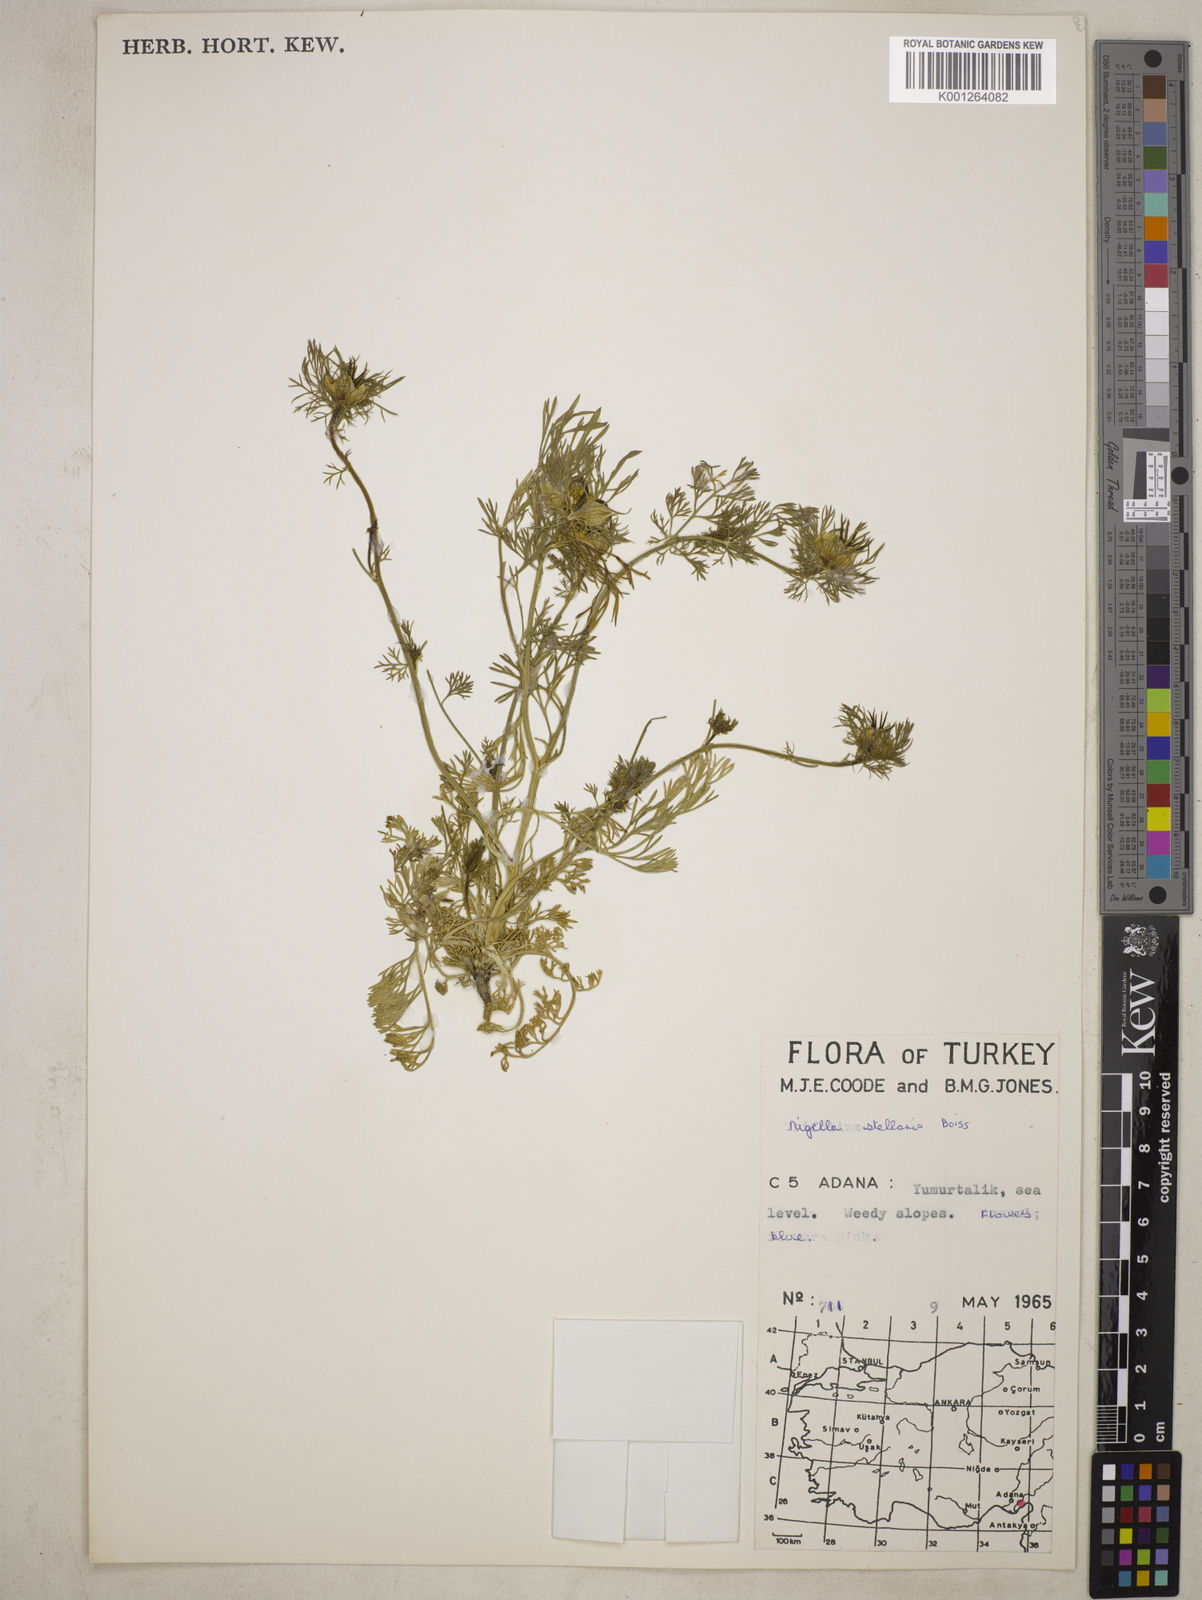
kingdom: Plantae
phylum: Tracheophyta
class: Magnoliopsida
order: Ranunculales
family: Ranunculaceae
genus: Nigella
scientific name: Nigella stellaris
